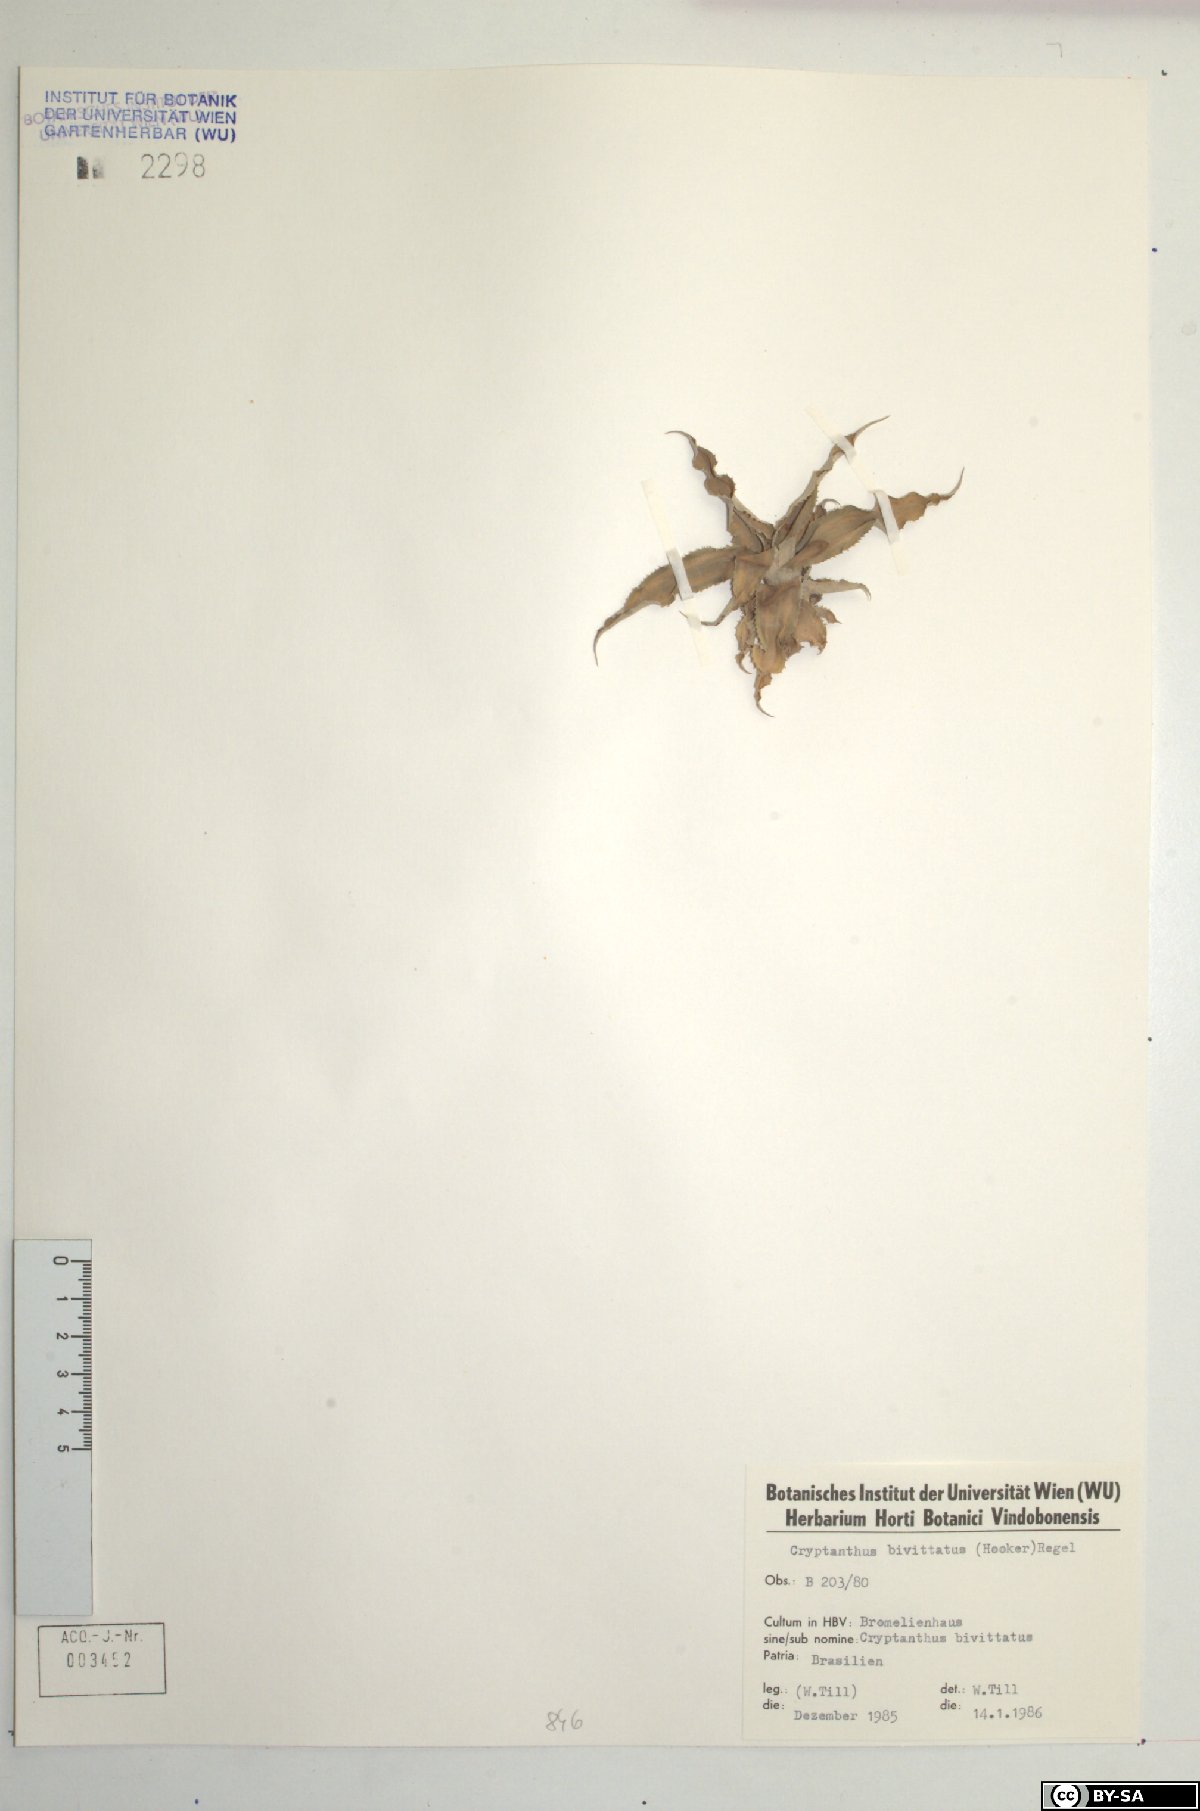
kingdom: Plantae
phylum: Tracheophyta
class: Liliopsida
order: Poales
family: Bromeliaceae
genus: Cryptanthus
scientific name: Cryptanthus bivittatus
